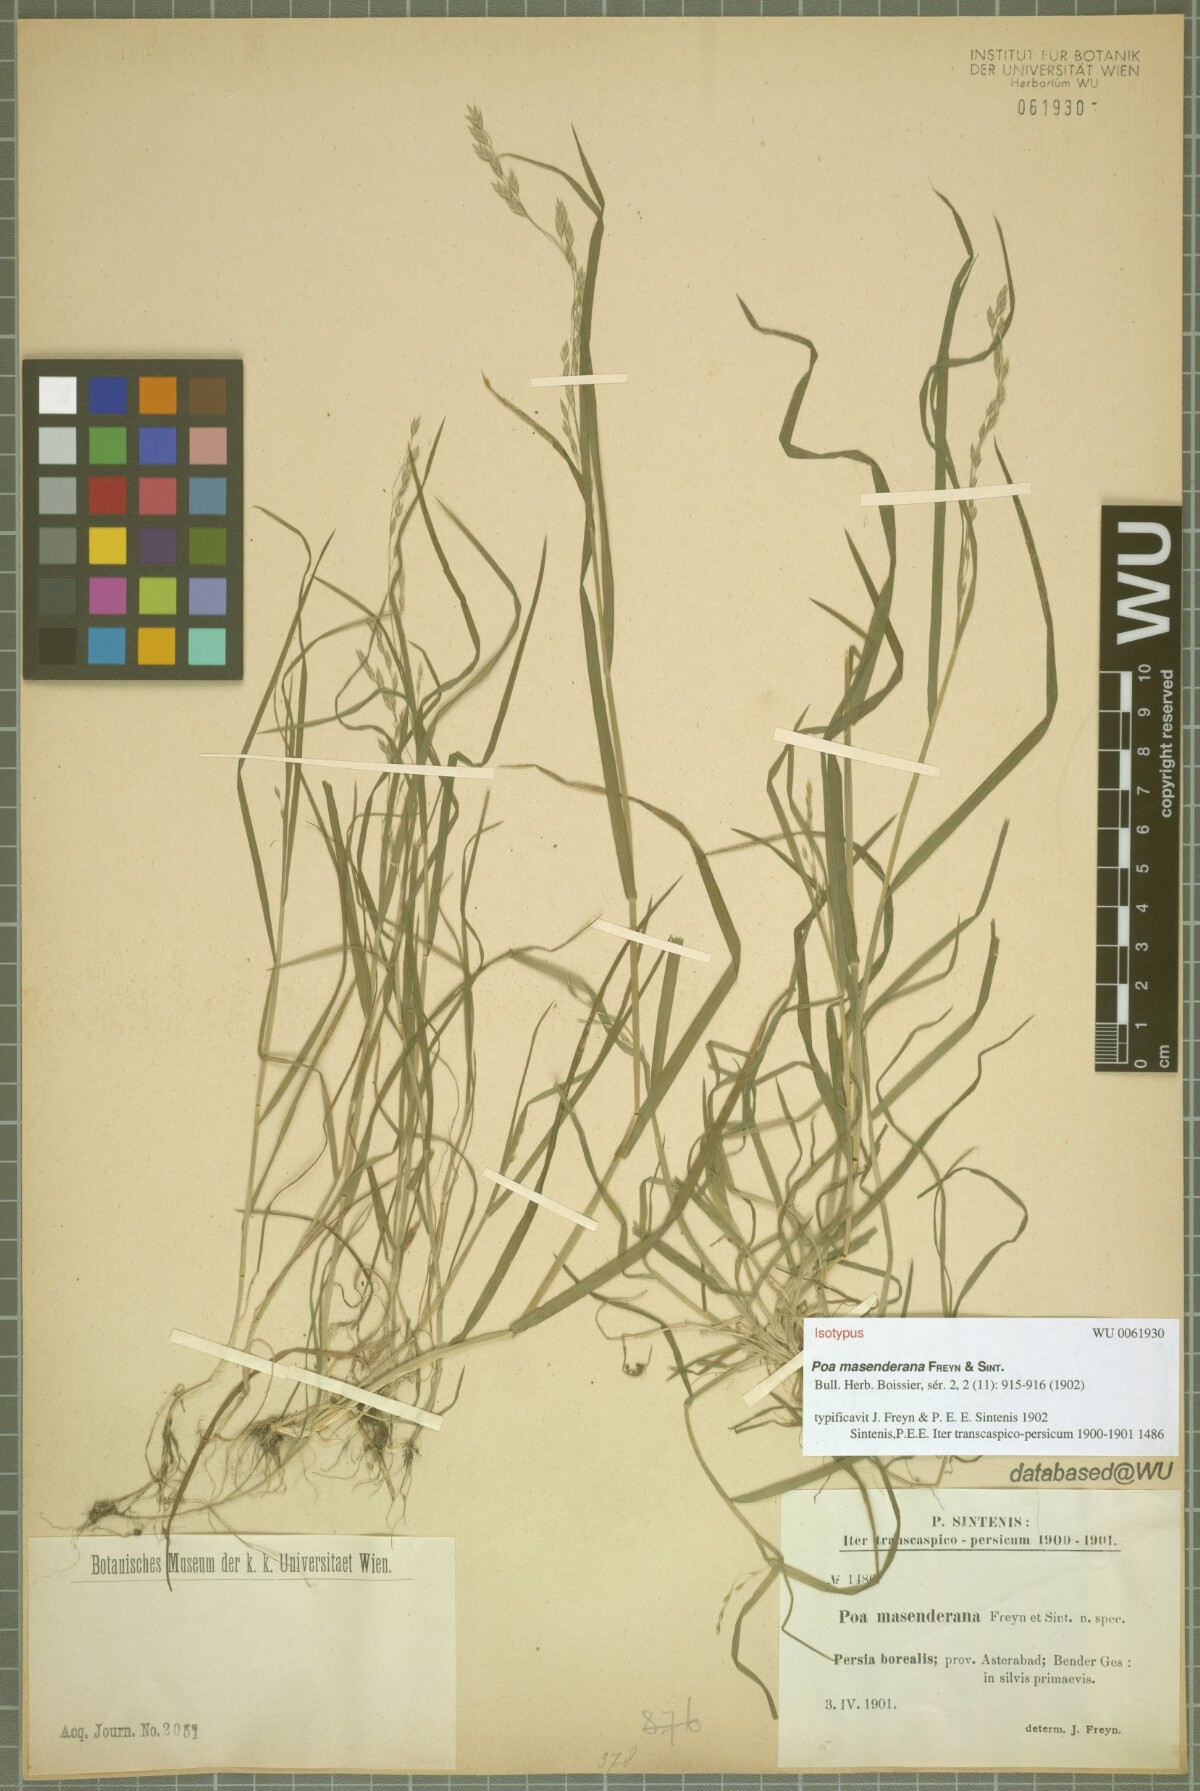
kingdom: Plantae
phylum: Tracheophyta
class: Liliopsida
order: Poales
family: Poaceae
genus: Poa
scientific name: Poa masenderana
